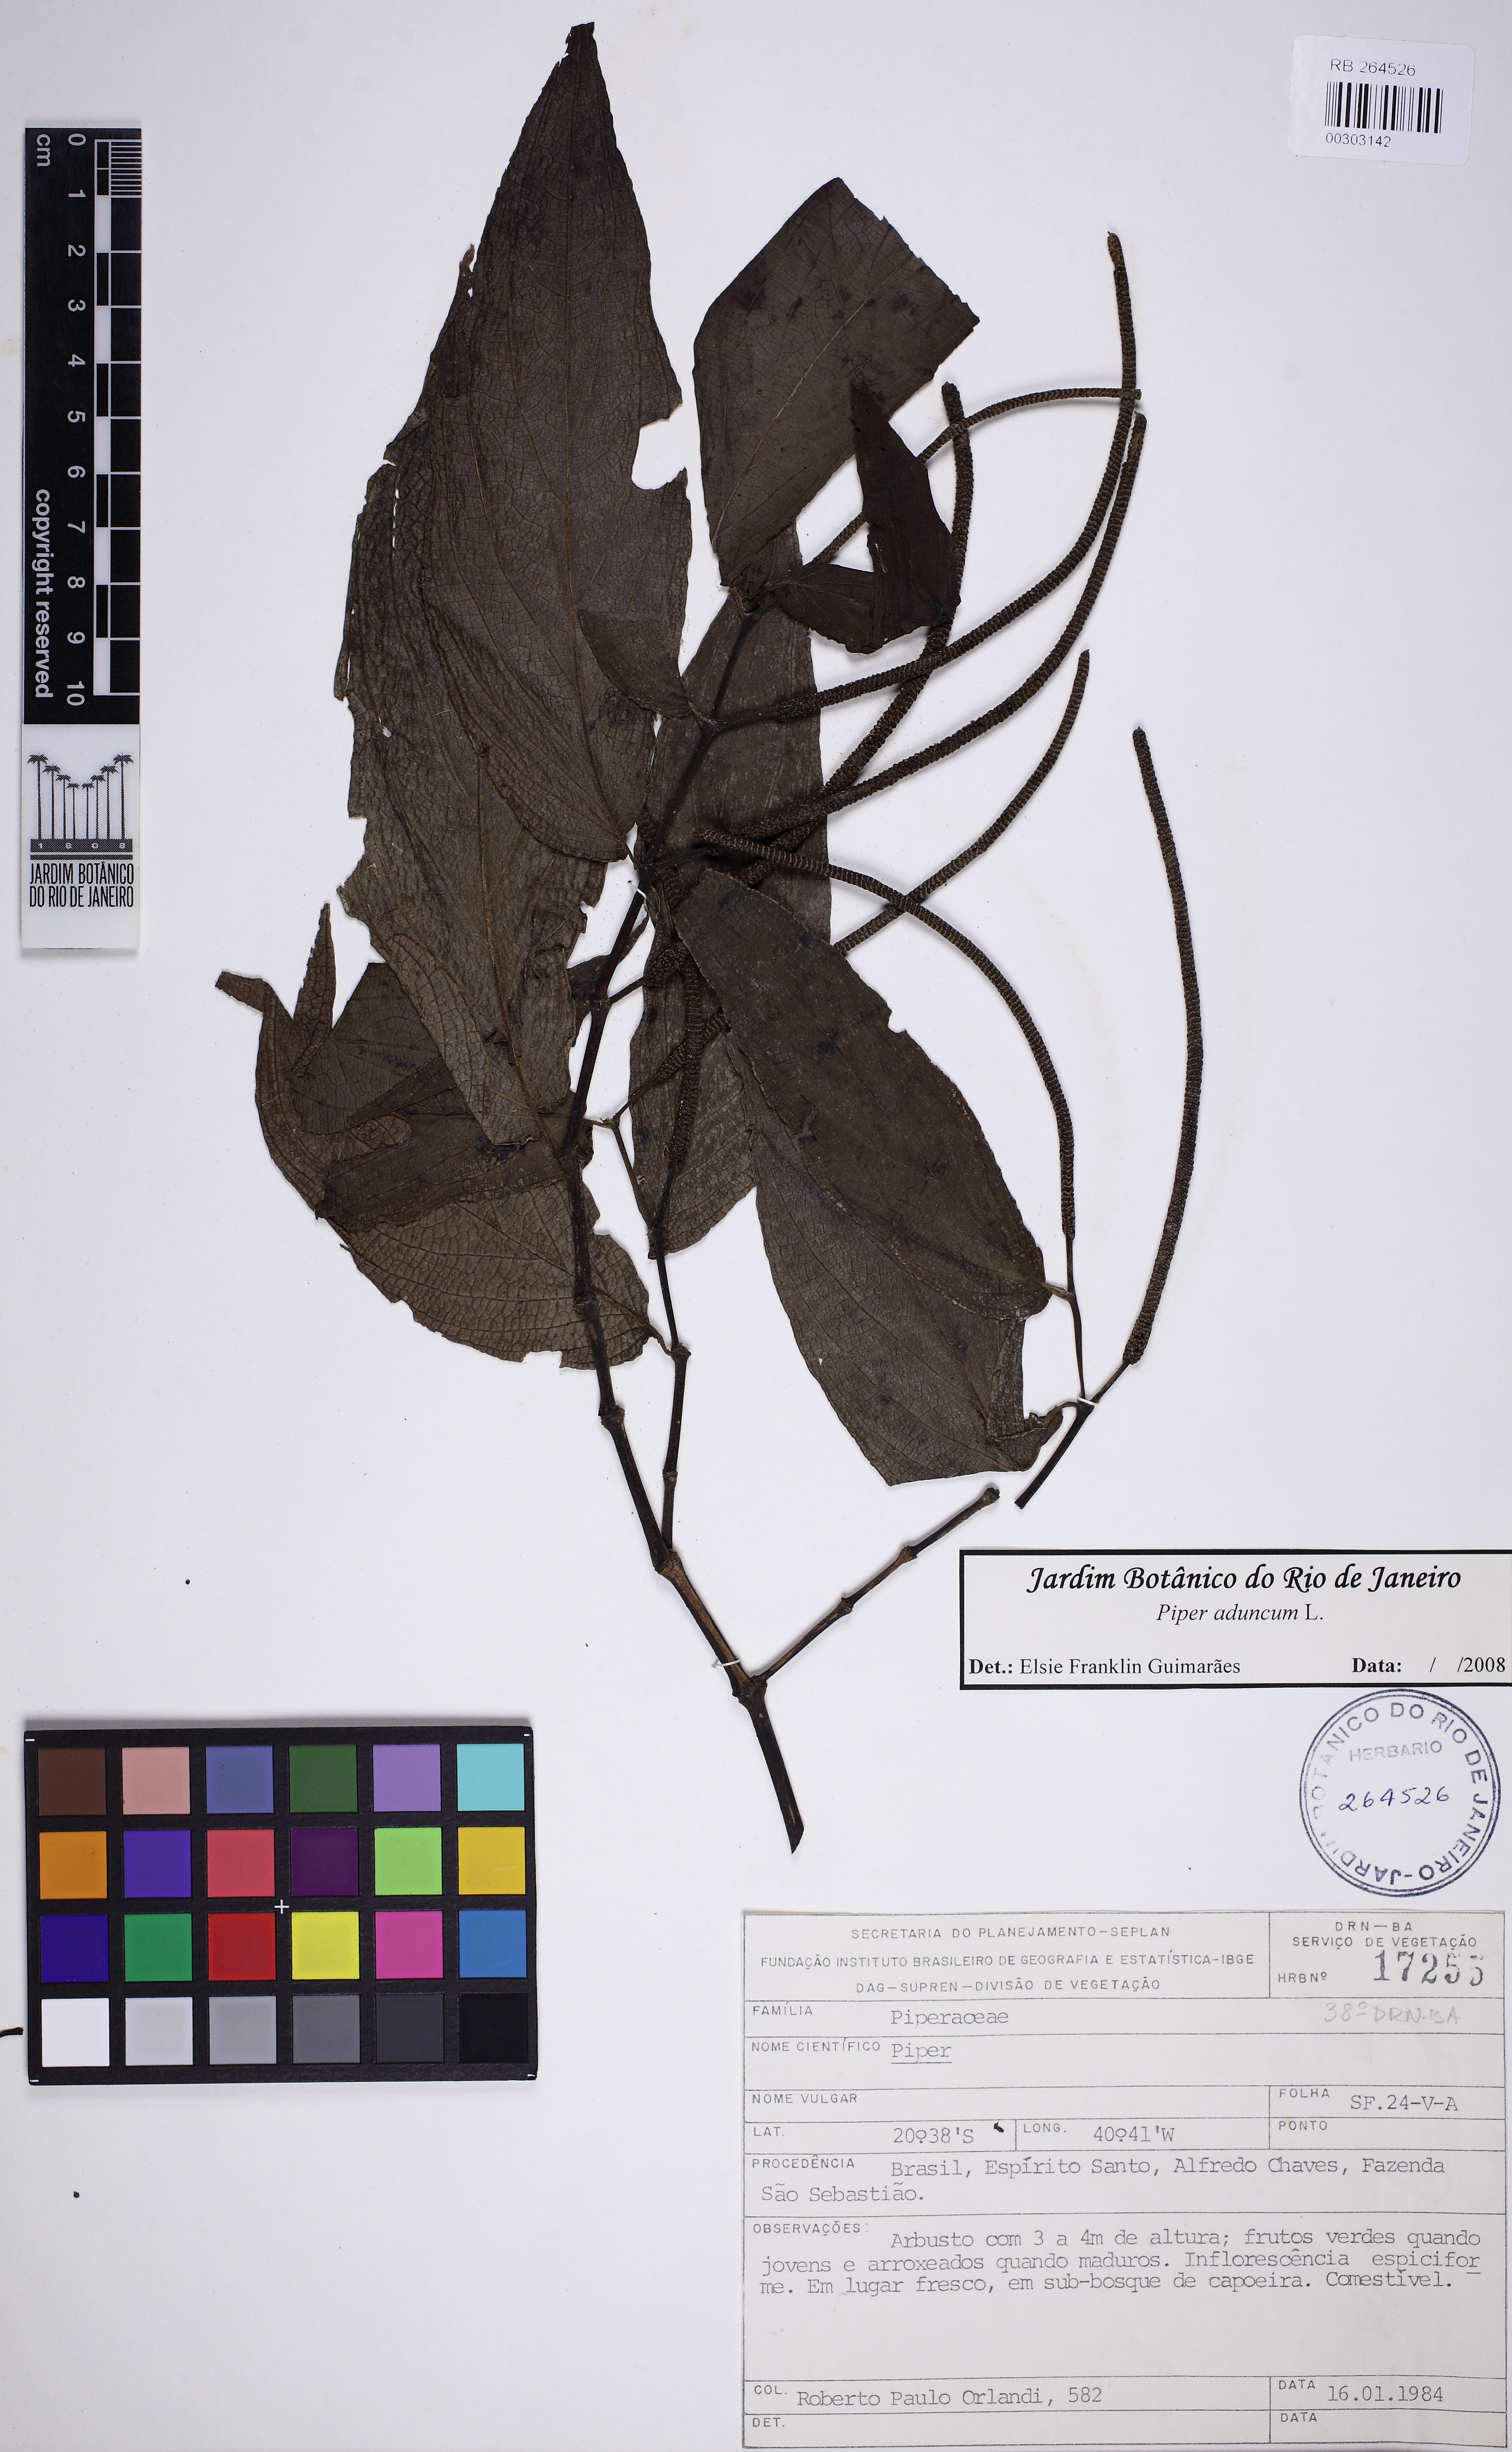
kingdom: Plantae
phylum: Tracheophyta
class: Magnoliopsida
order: Piperales
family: Piperaceae
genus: Piper
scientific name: Piper aduncum
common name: Spiked pepper
